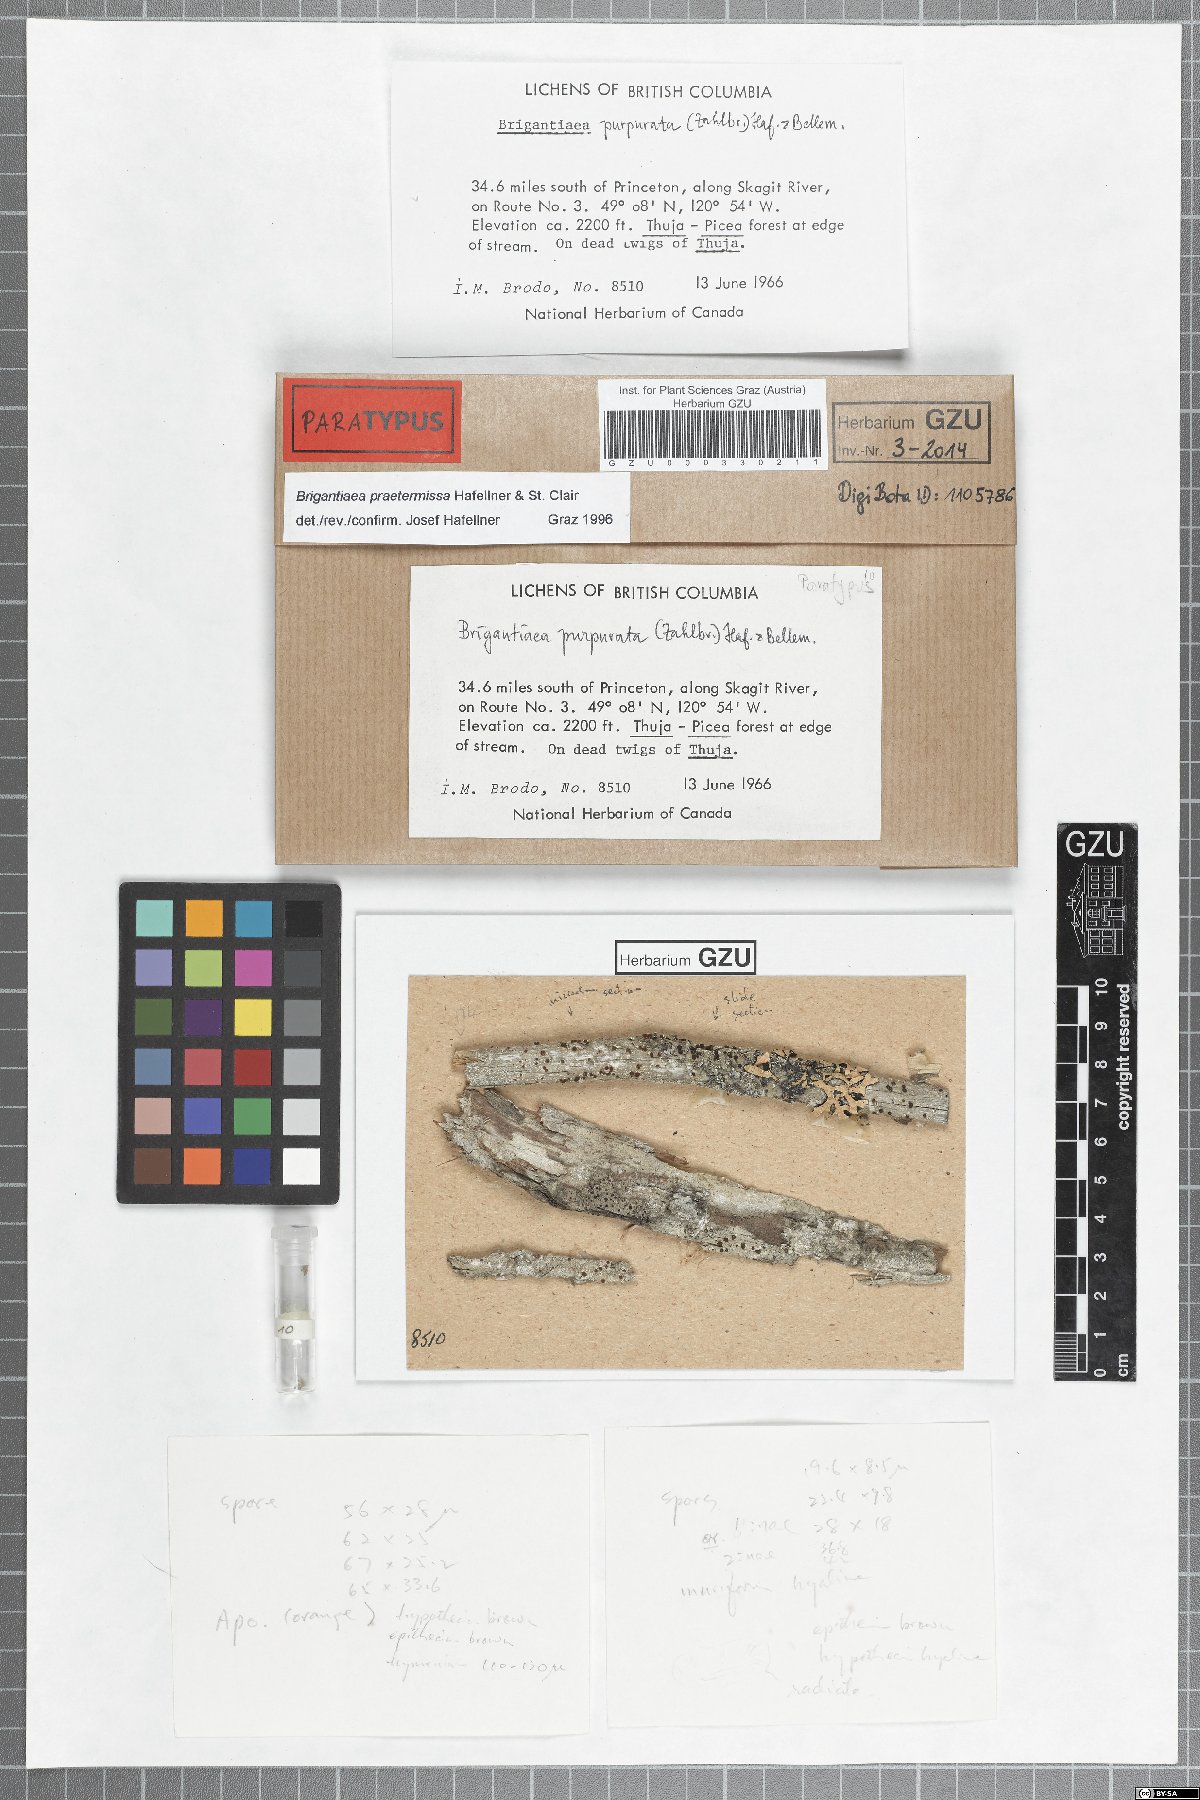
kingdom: Fungi
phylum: Ascomycota
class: Lecanoromycetes
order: Teloschistales
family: Brigantiaeaceae
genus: Brigantiaea
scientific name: Brigantiaea praetermissa
